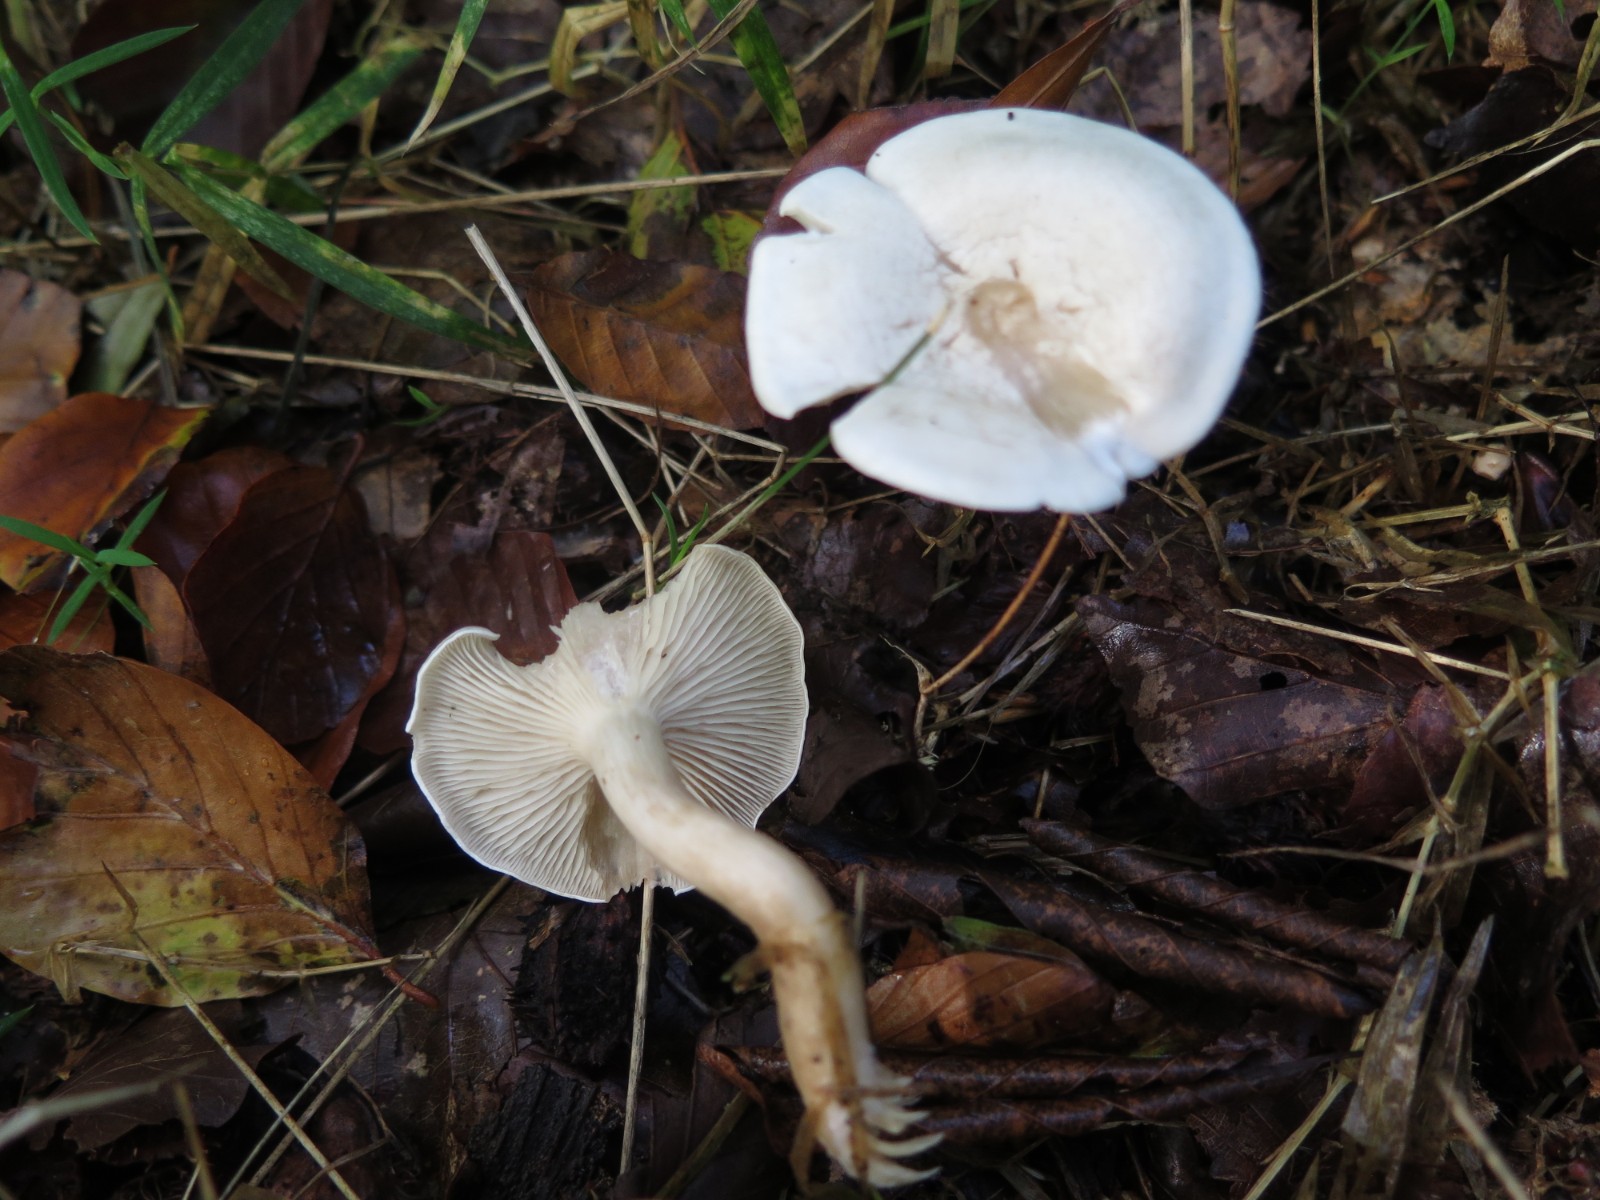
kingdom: Fungi
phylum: Basidiomycota
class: Agaricomycetes
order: Agaricales
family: Tricholomataceae
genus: Leucocybe
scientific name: Leucocybe candicans
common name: kridt-tragthat
